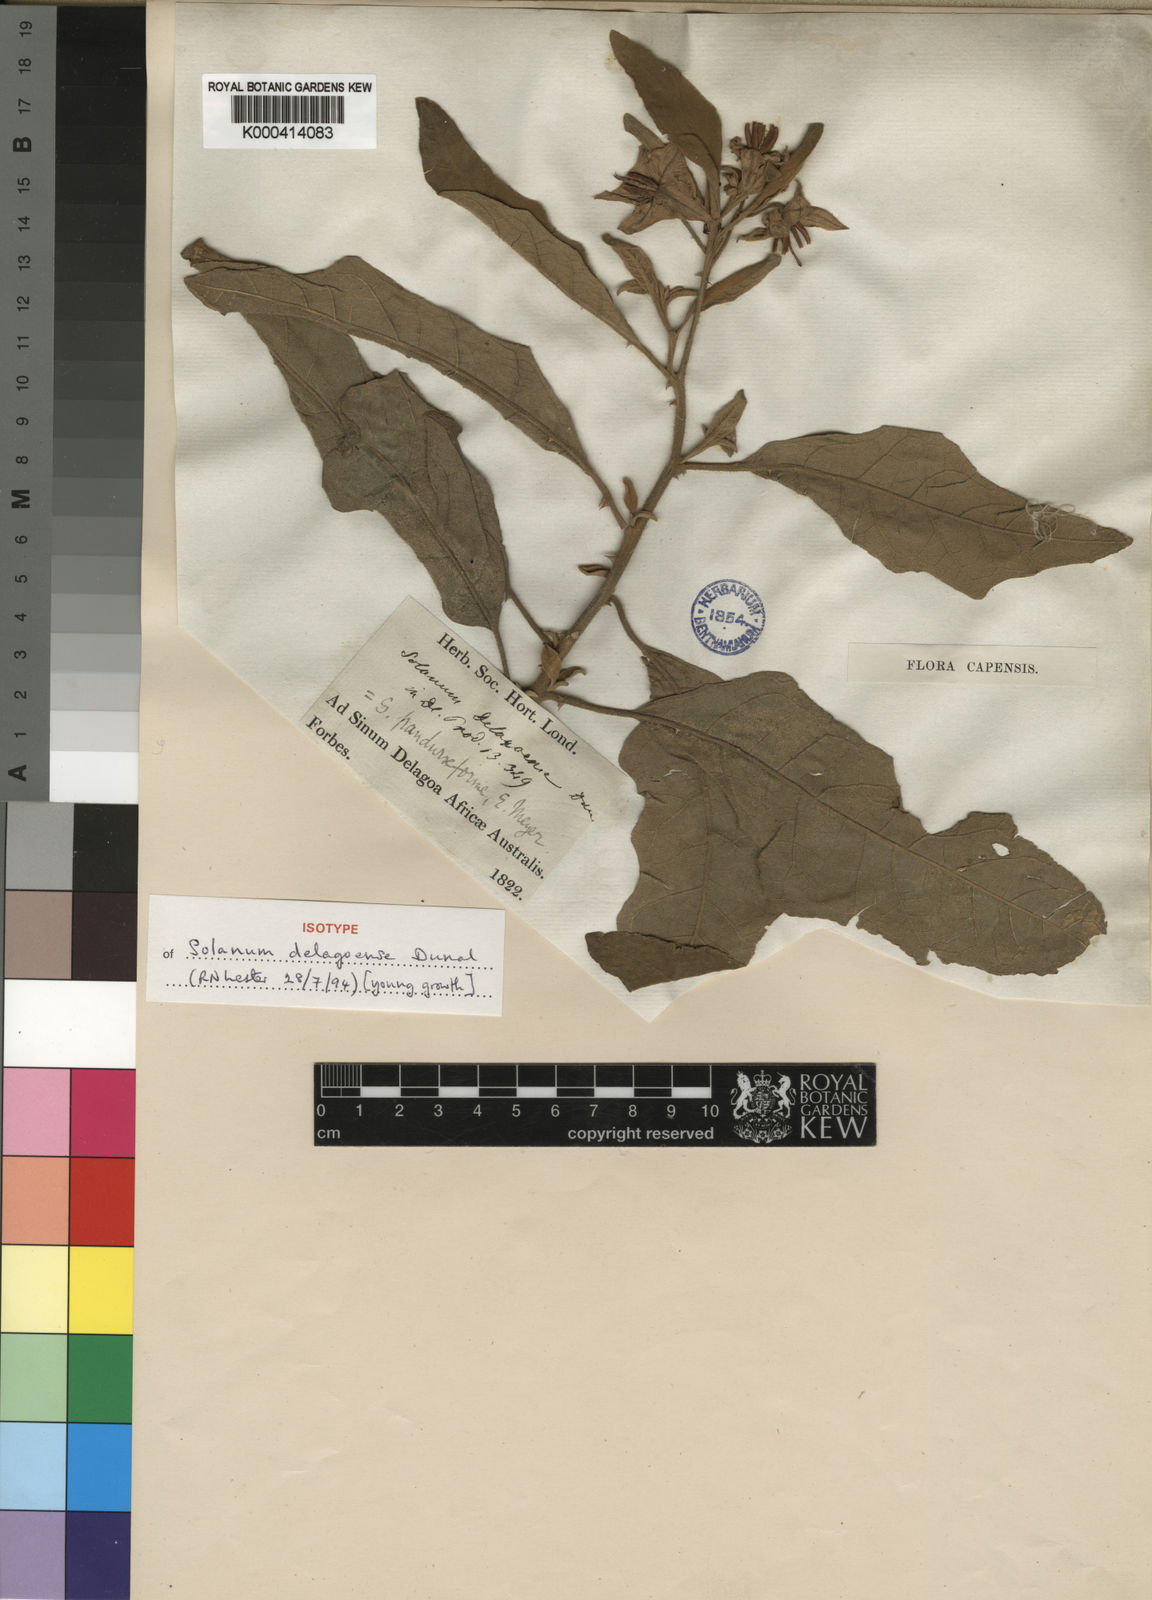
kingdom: Plantae
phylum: Tracheophyta
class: Magnoliopsida
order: Solanales
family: Solanaceae
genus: Solanum
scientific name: Solanum incanum
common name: Bitter apple
